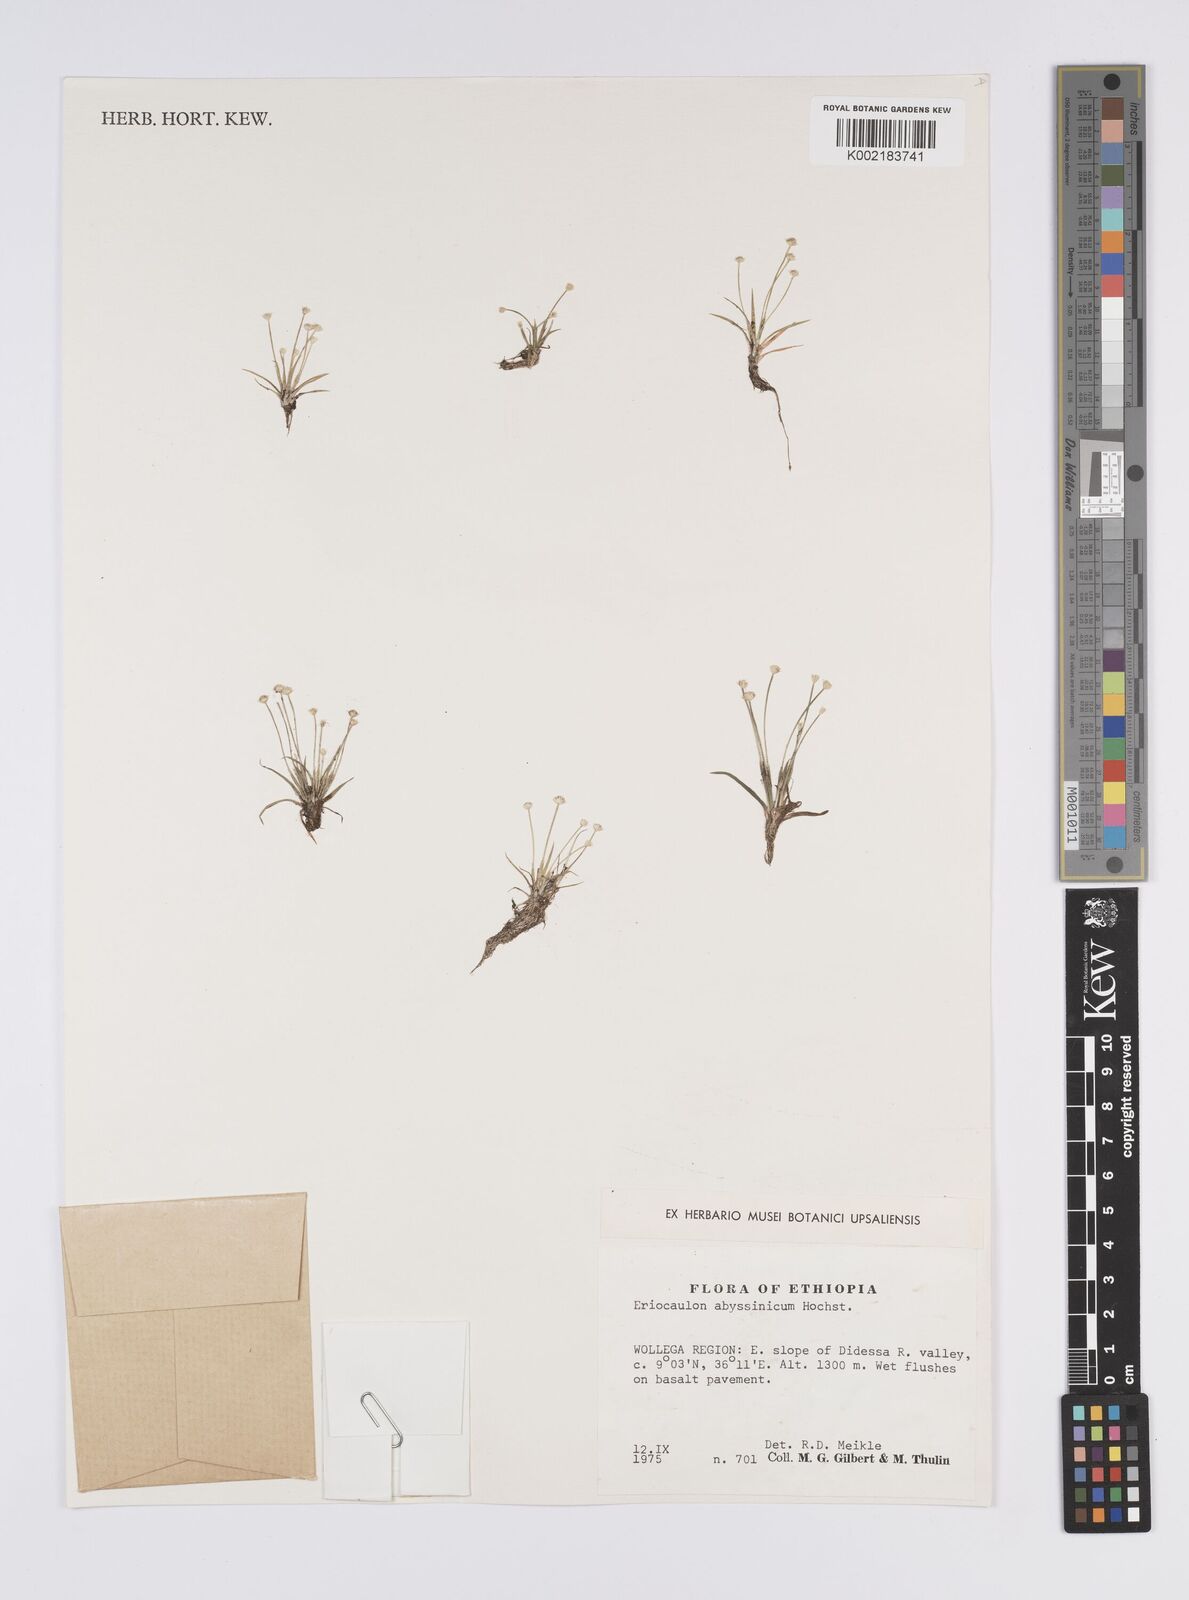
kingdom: Plantae
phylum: Tracheophyta
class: Liliopsida
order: Poales
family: Eriocaulaceae
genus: Eriocaulon
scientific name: Eriocaulon
